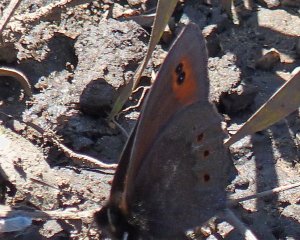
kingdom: Animalia
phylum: Arthropoda
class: Insecta
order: Lepidoptera
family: Nymphalidae
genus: Erebia
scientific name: Erebia epipsodea
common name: Common Alpine
